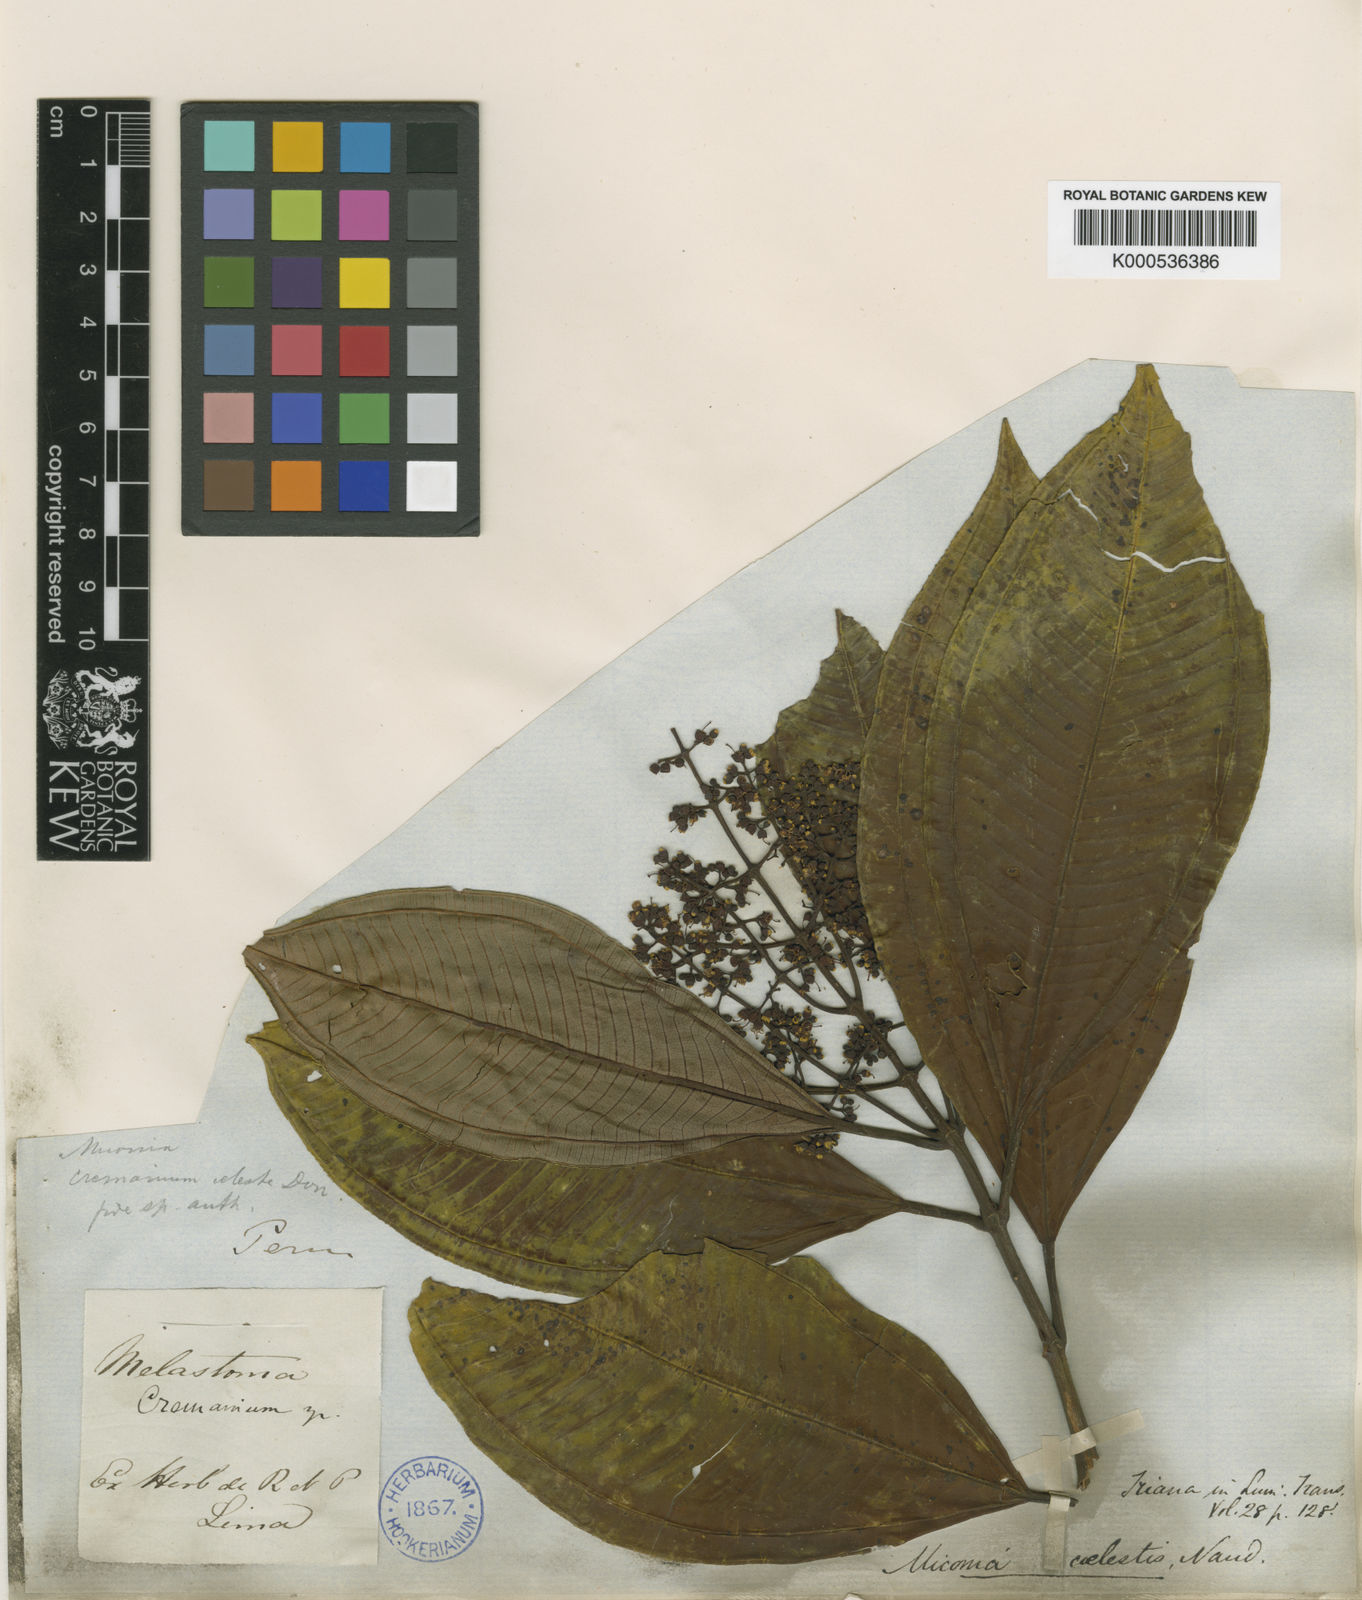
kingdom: Plantae
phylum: Tracheophyta
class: Magnoliopsida
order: Myrtales
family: Melastomataceae
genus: Miconia
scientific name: Miconia coelestis
